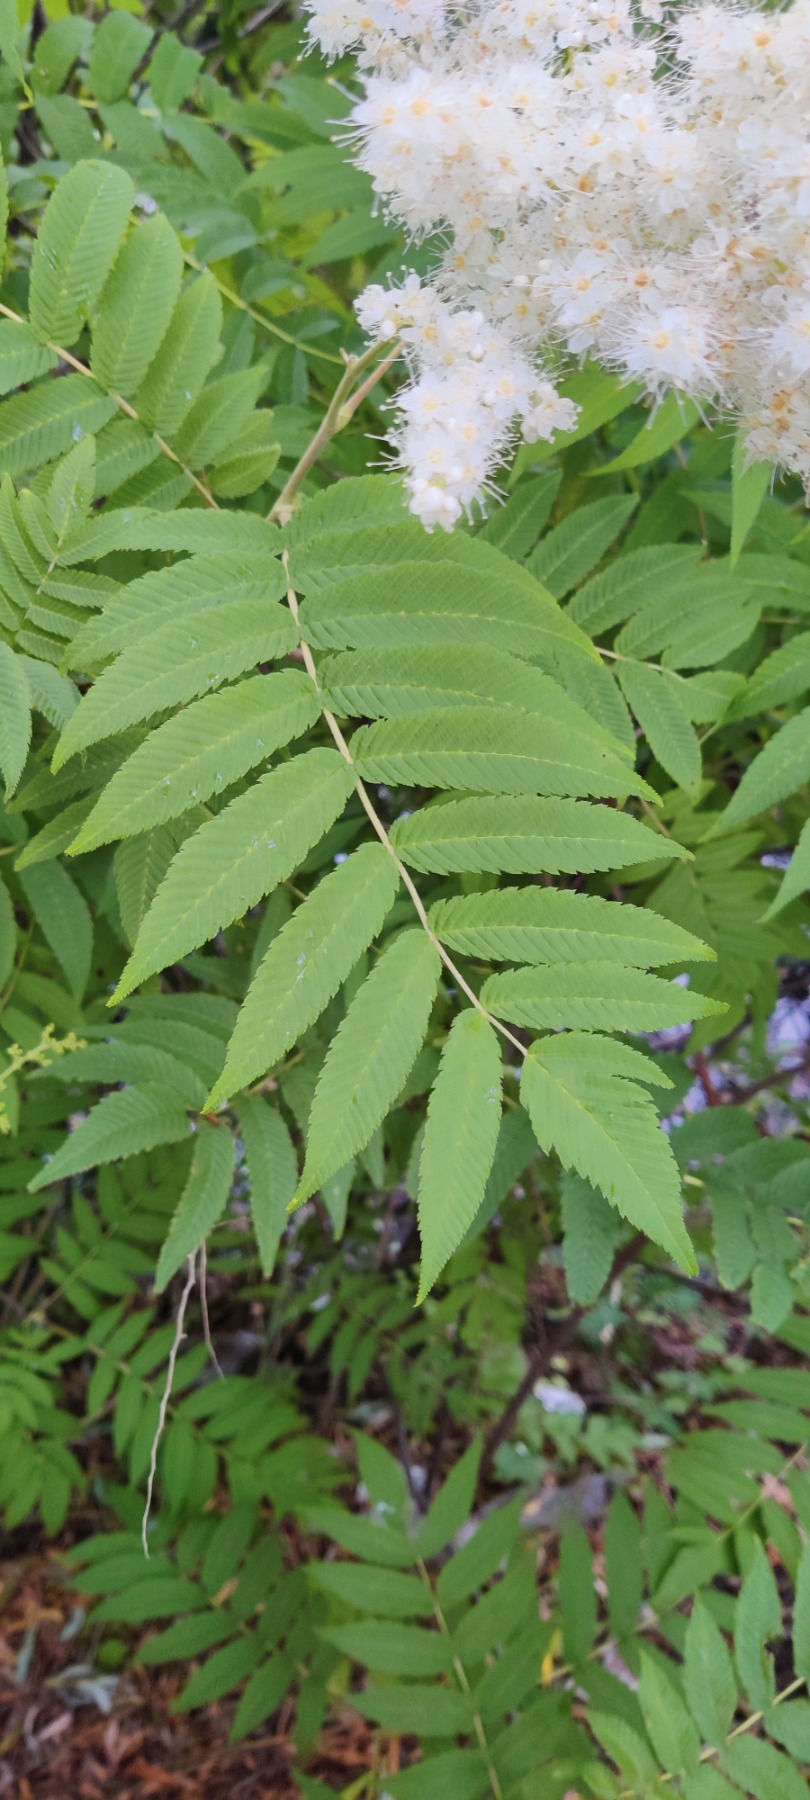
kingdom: Plantae
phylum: Tracheophyta
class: Magnoliopsida
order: Rosales
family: Rosaceae
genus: Sorbaria
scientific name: Sorbaria kirilowii
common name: Kinesisk tusindtop
